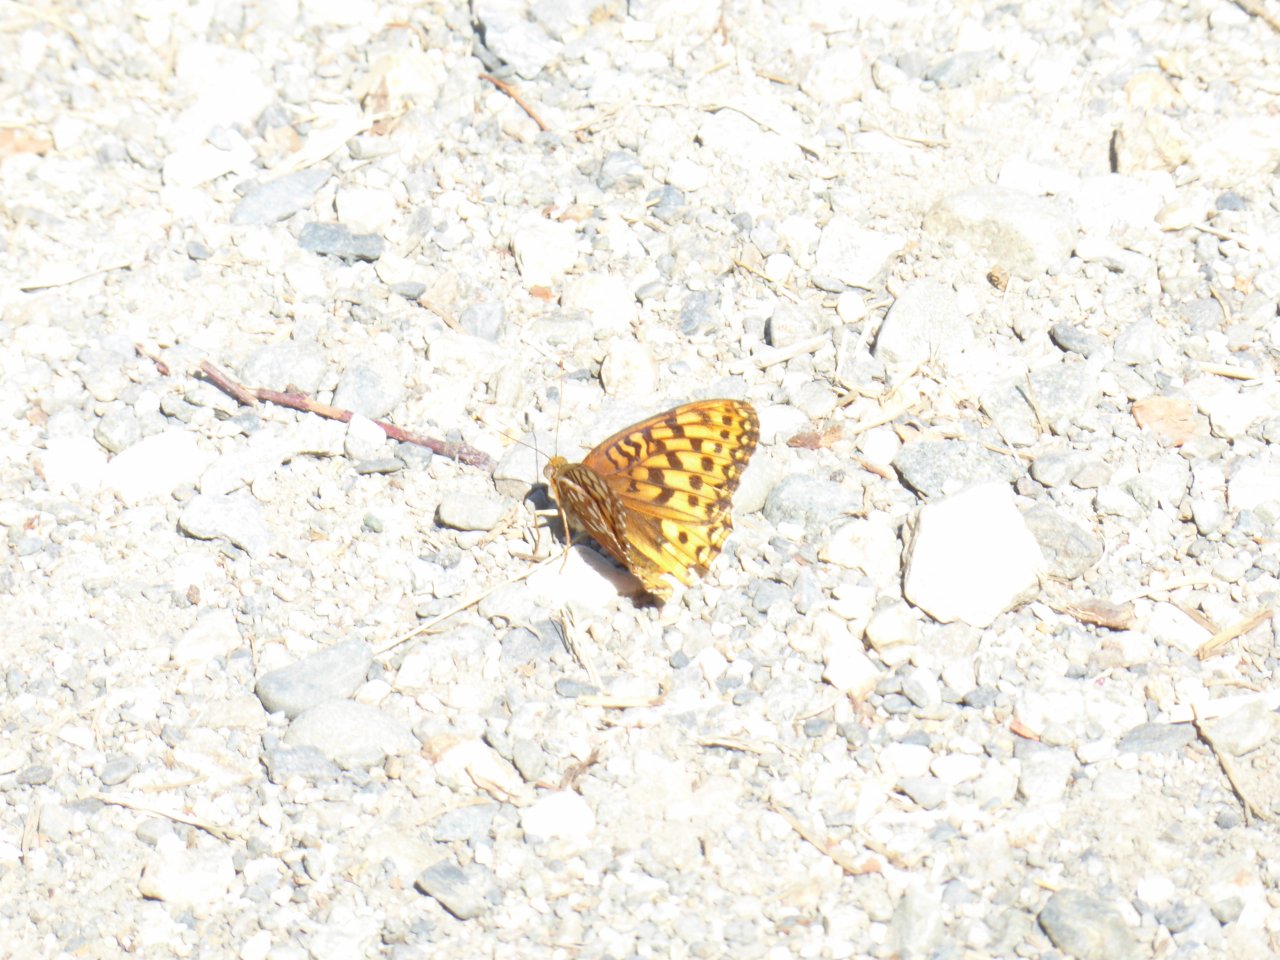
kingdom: Animalia
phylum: Arthropoda
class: Insecta
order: Lepidoptera
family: Nymphalidae
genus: Speyeria
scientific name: Speyeria callippe
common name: Callippe Fritillary
